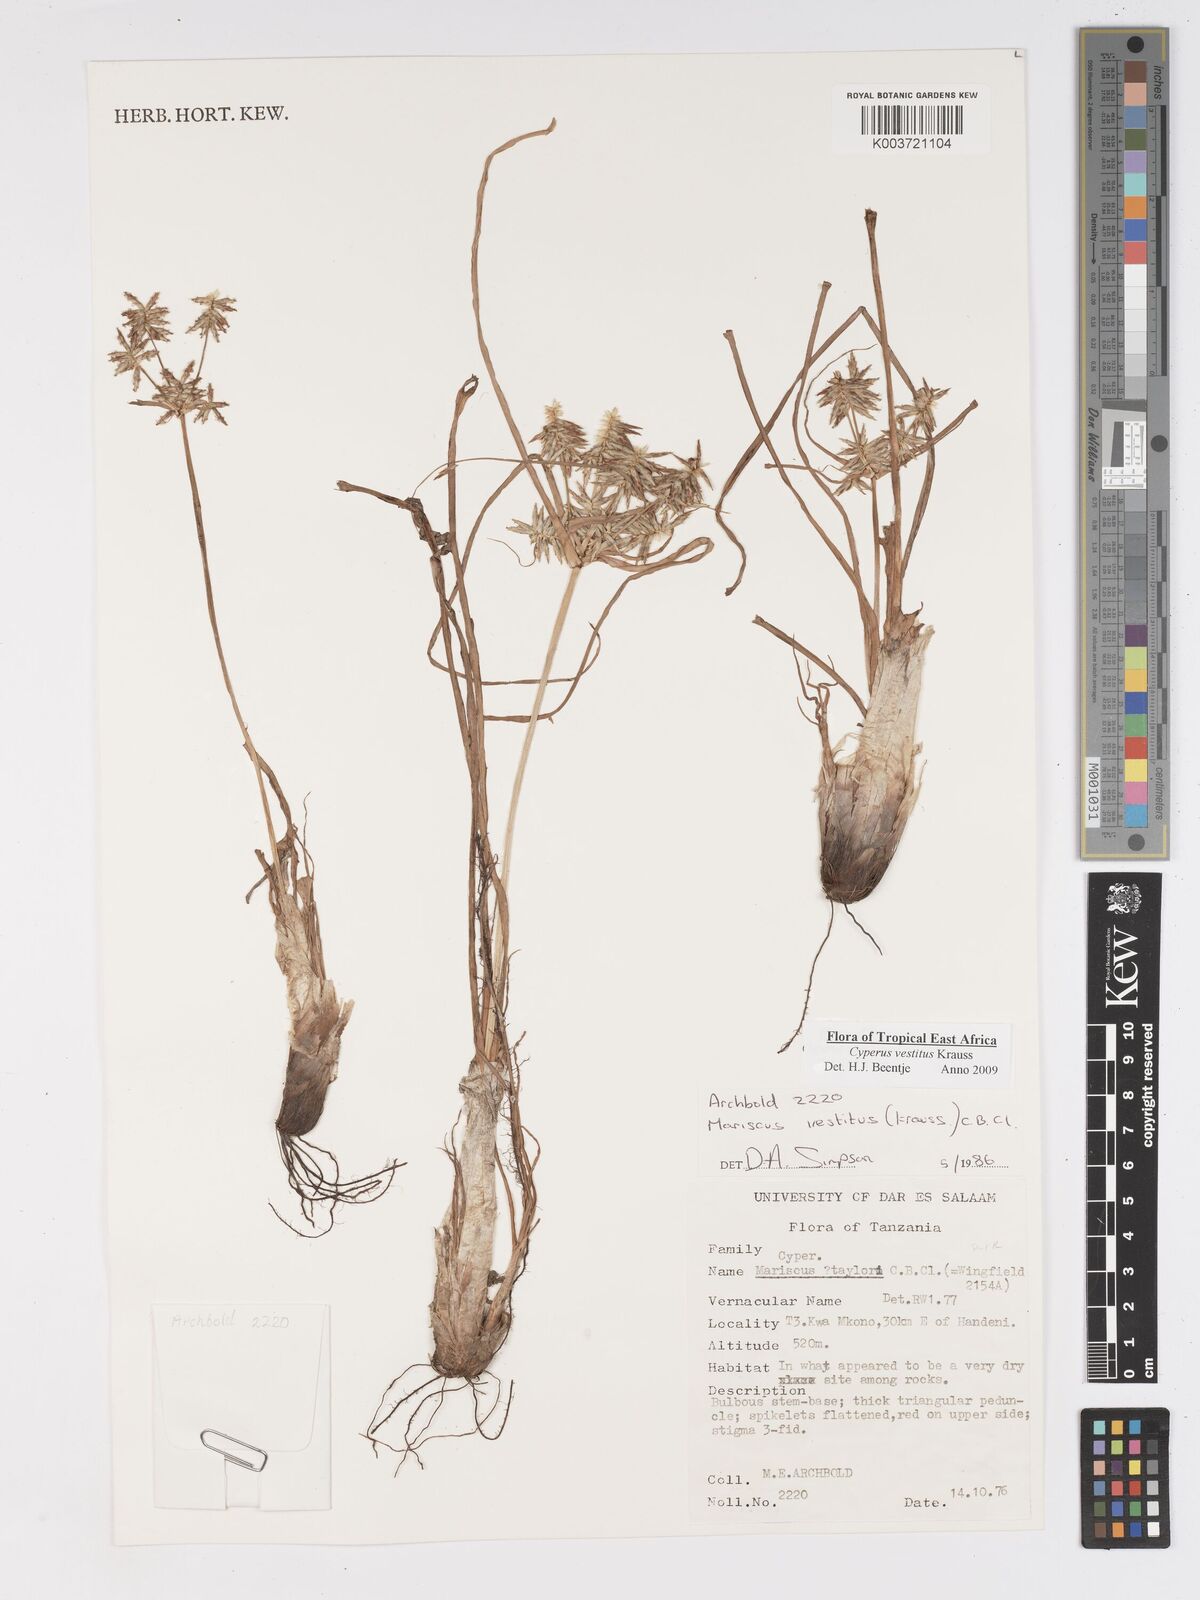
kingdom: Plantae
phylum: Tracheophyta
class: Liliopsida
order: Poales
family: Cyperaceae
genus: Cyperus
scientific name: Cyperus vestitus
